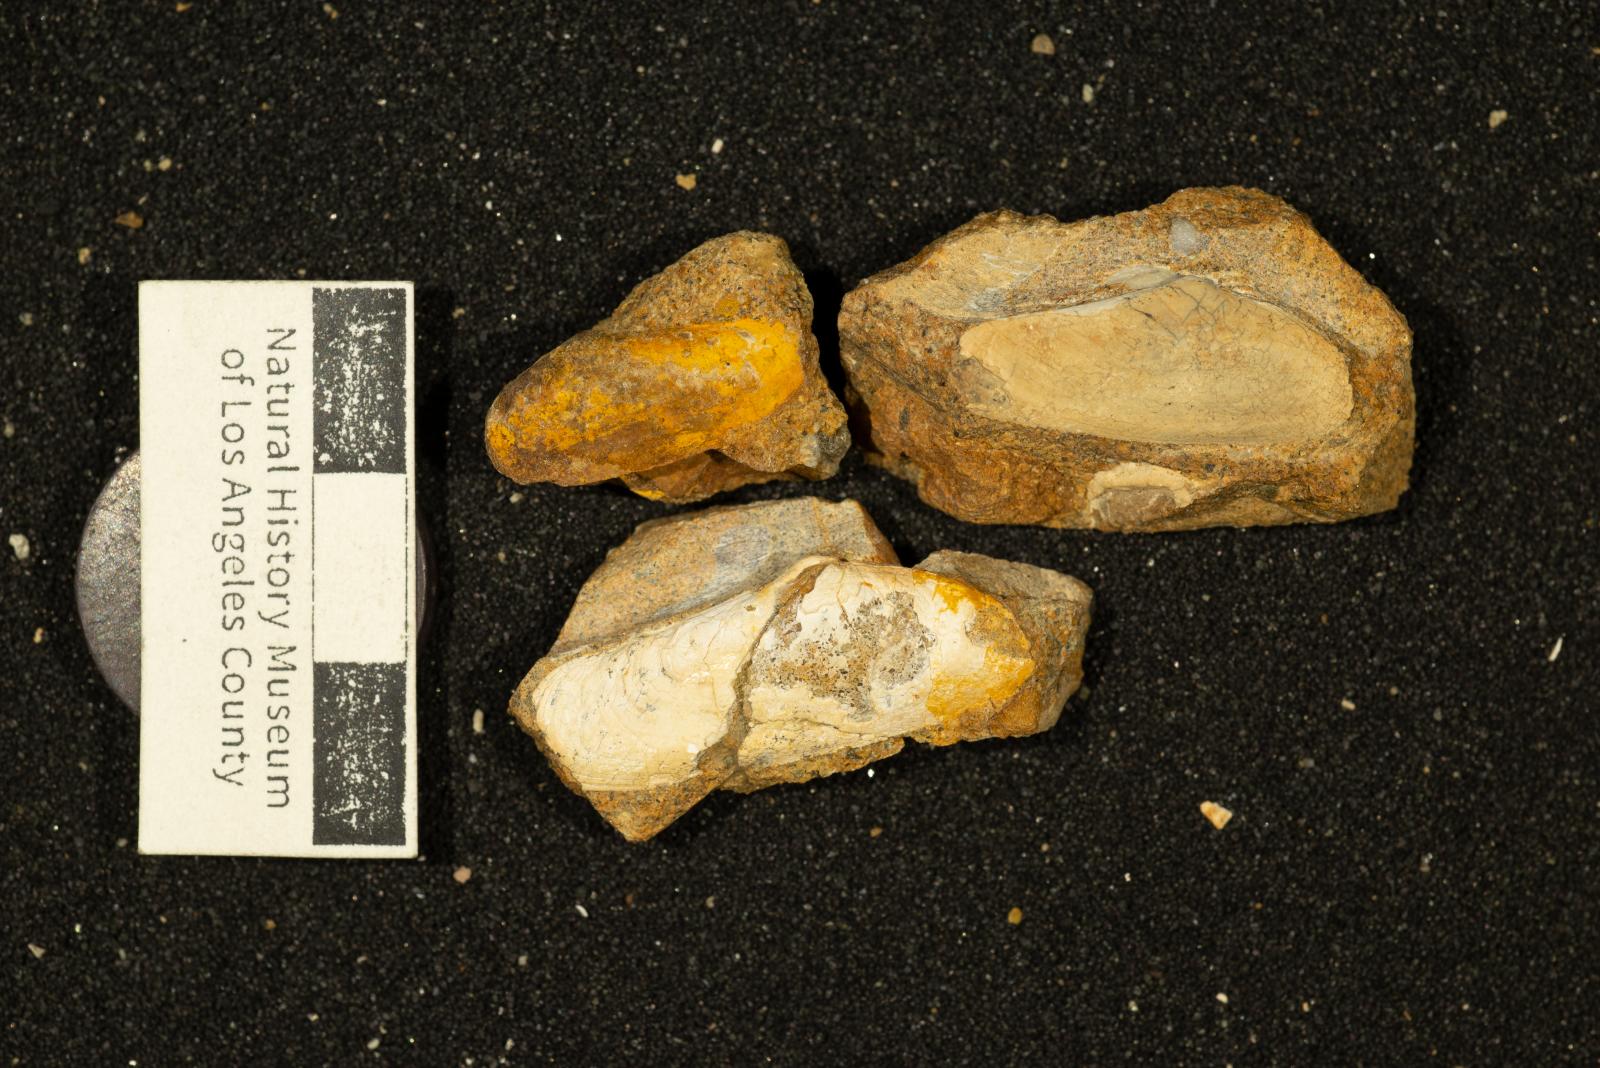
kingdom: Animalia
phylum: Mollusca
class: Bivalvia
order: Cardiida
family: Donacidae
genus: Adelodonax
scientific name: Adelodonax Pharella alta
